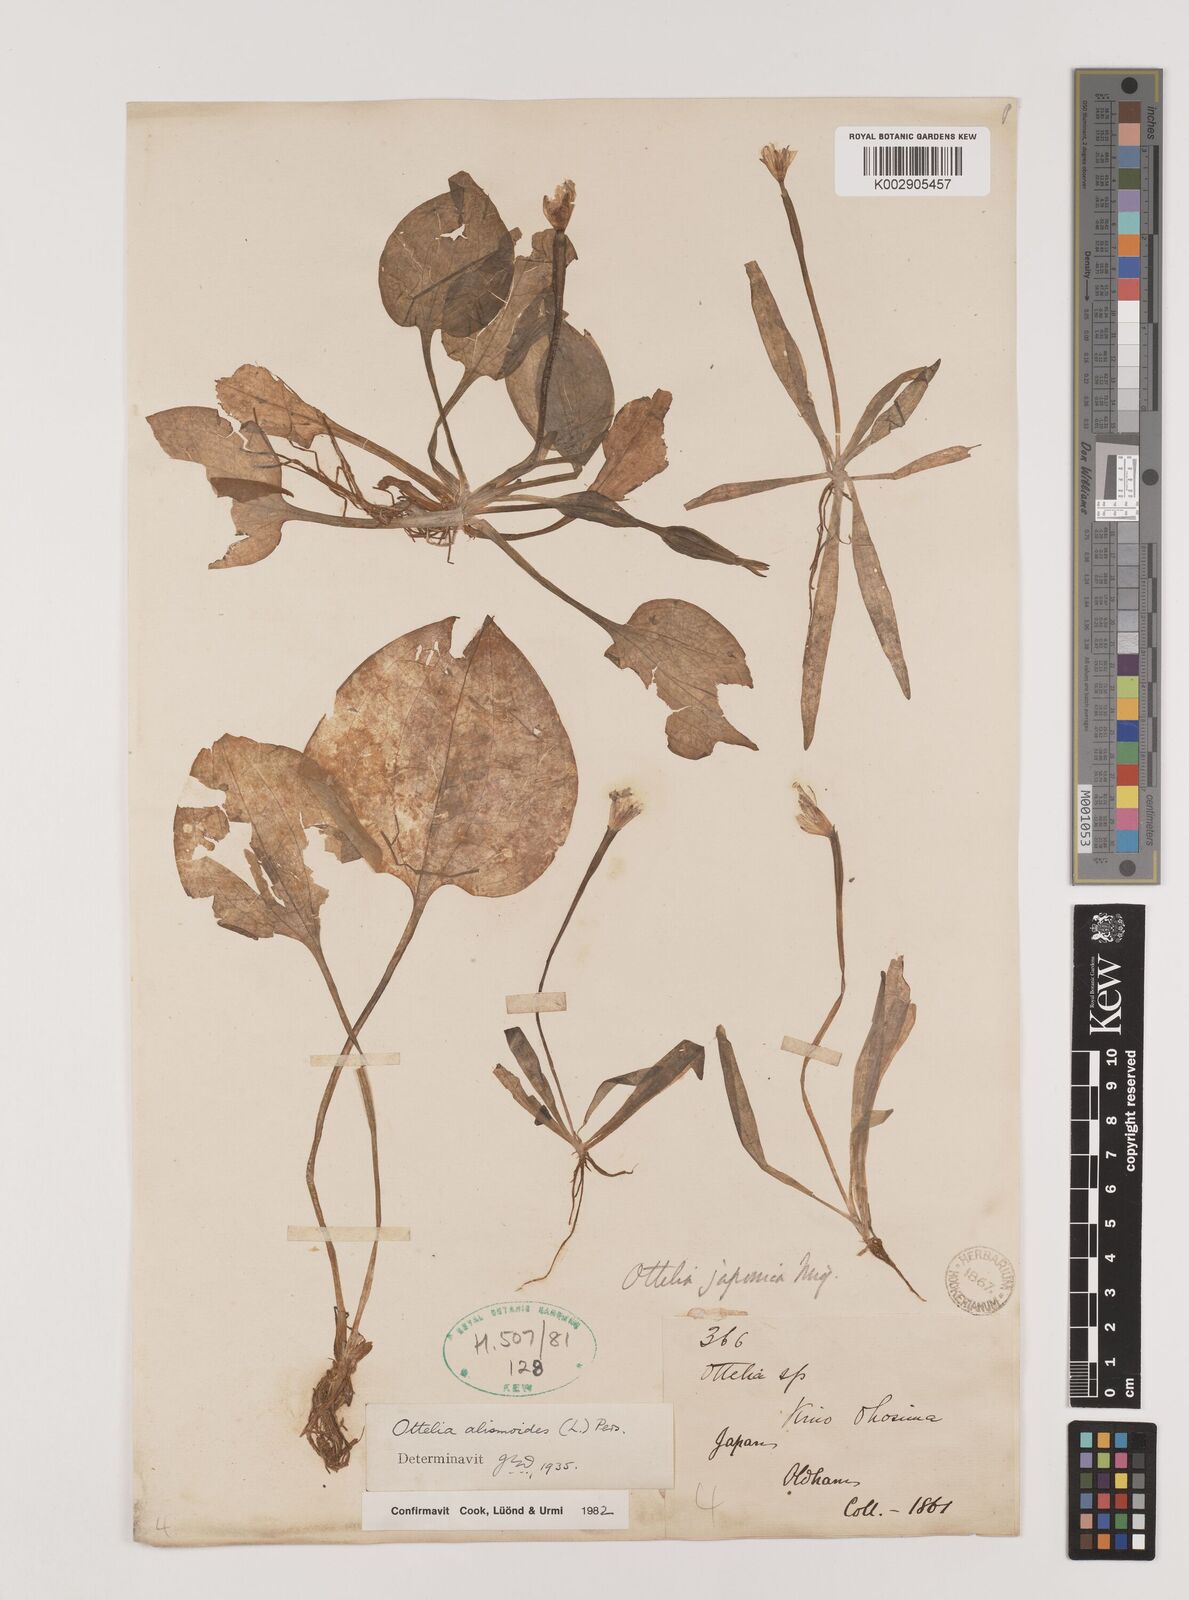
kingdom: Plantae
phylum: Tracheophyta
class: Liliopsida
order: Alismatales
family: Hydrocharitaceae
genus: Ottelia
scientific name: Ottelia alismoides
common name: Duck-lettuce
